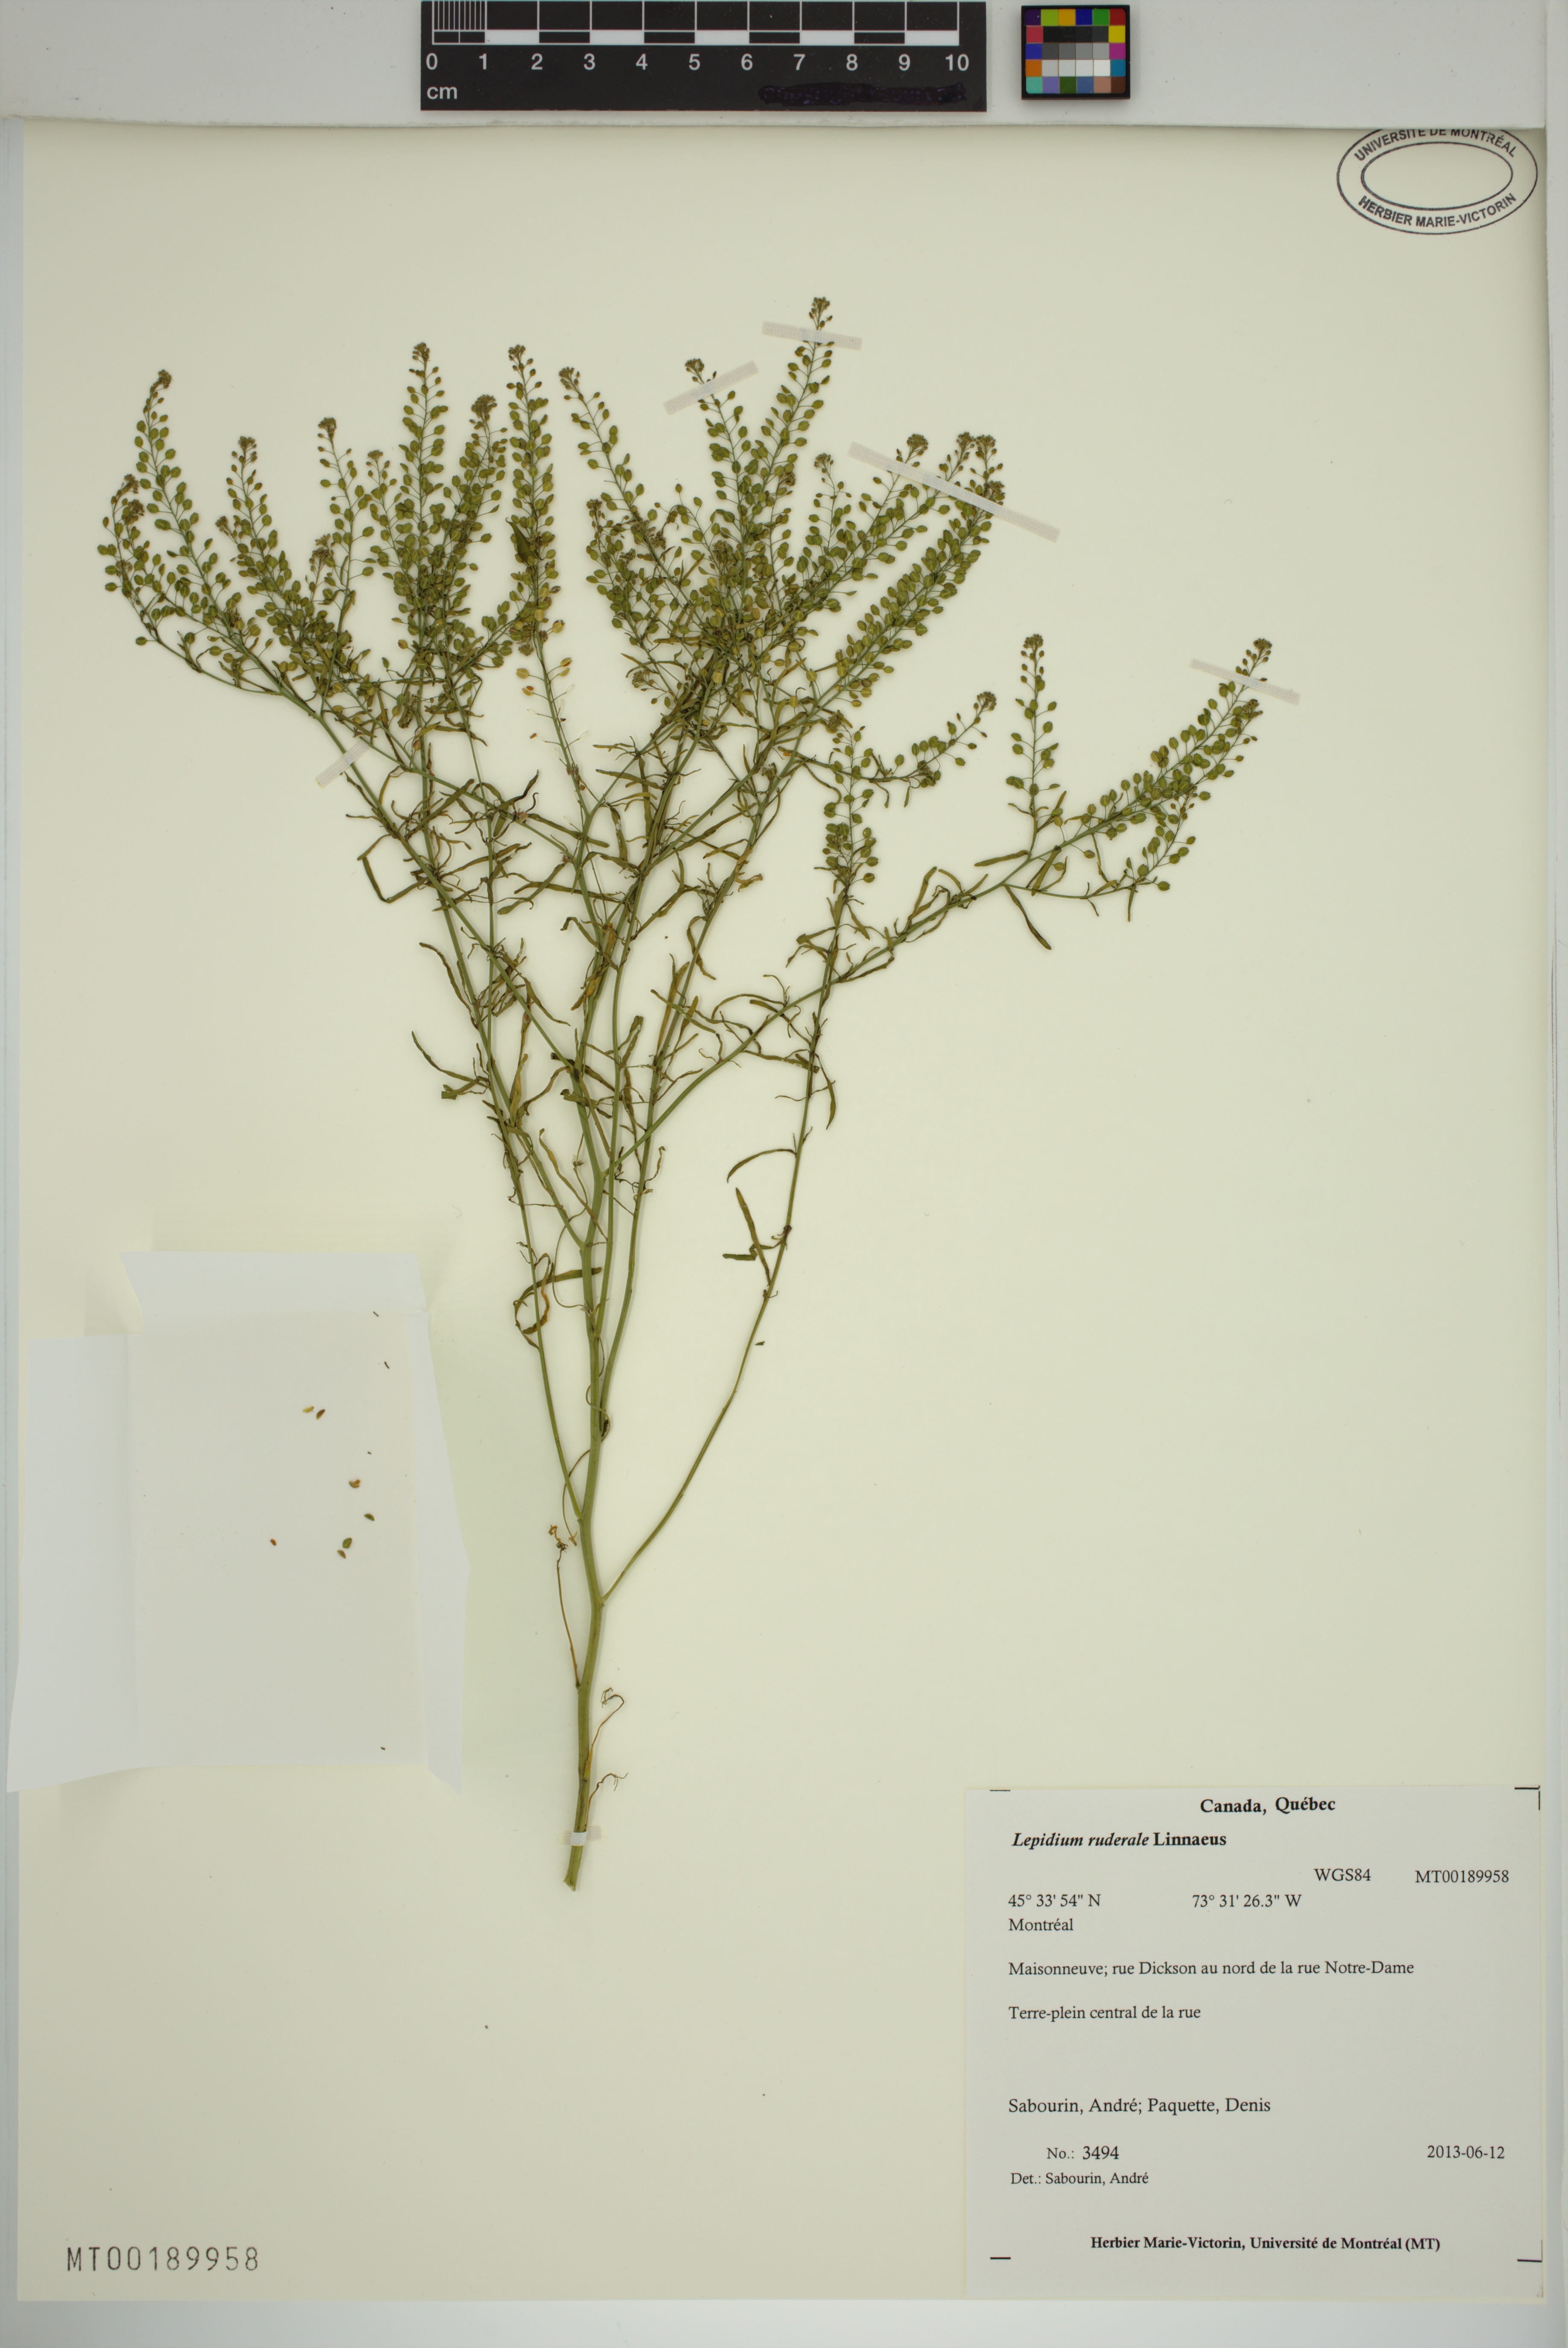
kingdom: Plantae
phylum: Tracheophyta
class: Magnoliopsida
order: Brassicales
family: Brassicaceae
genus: Lepidium
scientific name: Lepidium ruderale
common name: Narrow-leaved pepperwort
